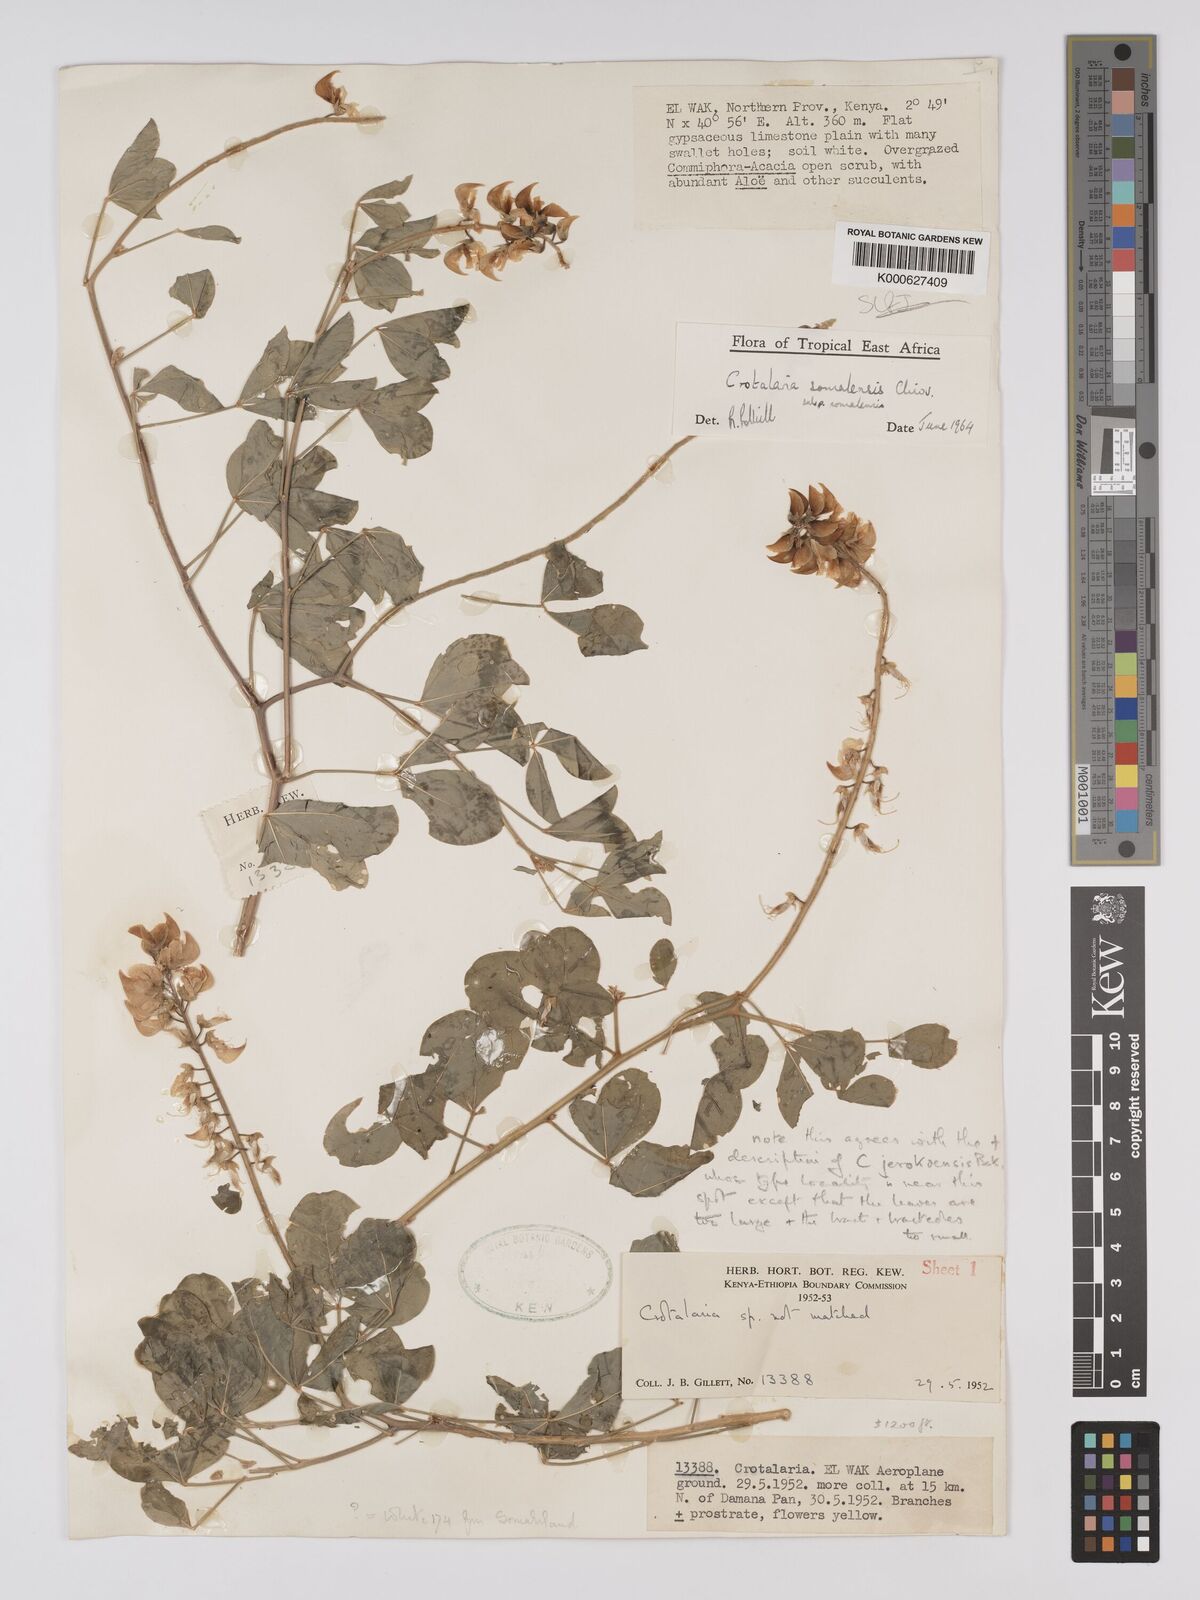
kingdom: Plantae
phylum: Tracheophyta
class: Magnoliopsida
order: Fabales
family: Fabaceae
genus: Crotalaria
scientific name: Crotalaria
